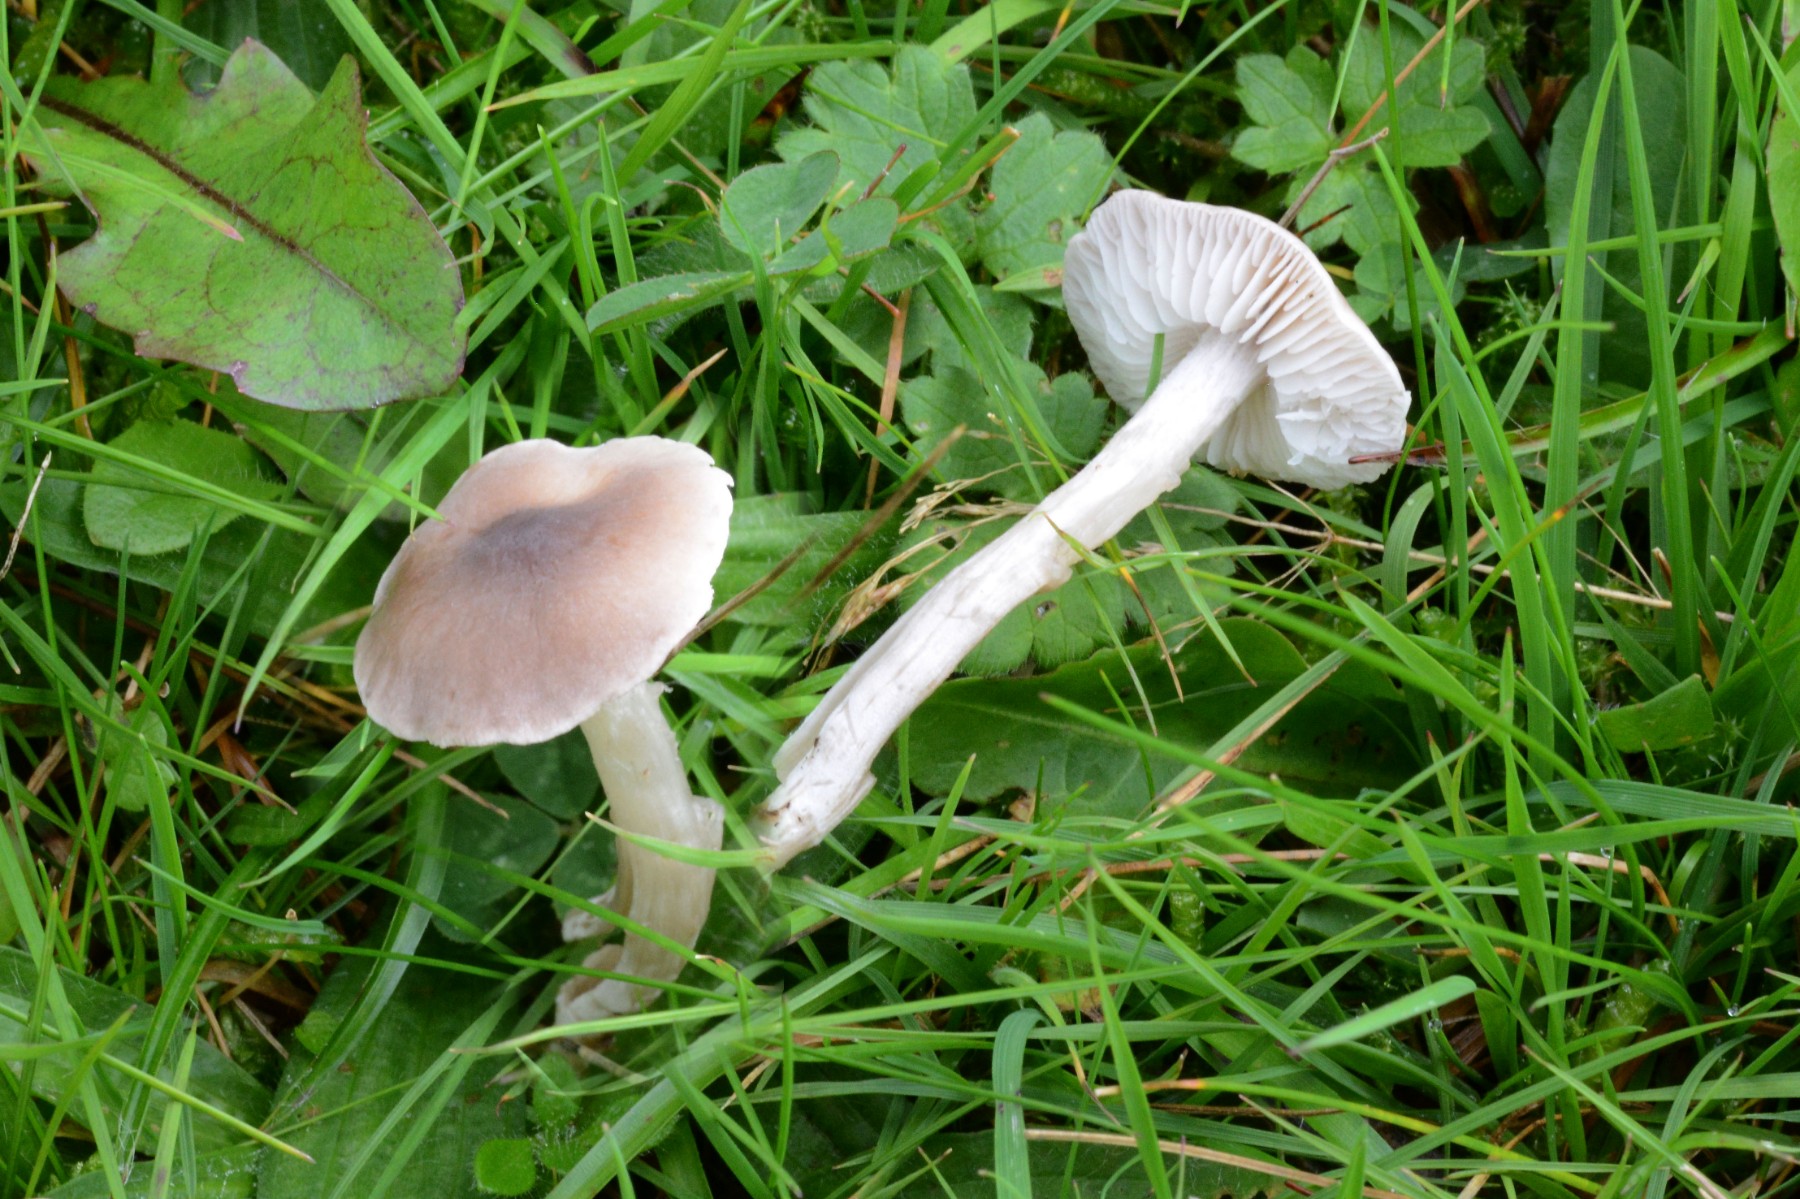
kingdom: Fungi
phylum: Basidiomycota
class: Agaricomycetes
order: Agaricales
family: Tricholomataceae
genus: Dermoloma
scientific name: Dermoloma cuneifolium
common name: eng-nonnehat
